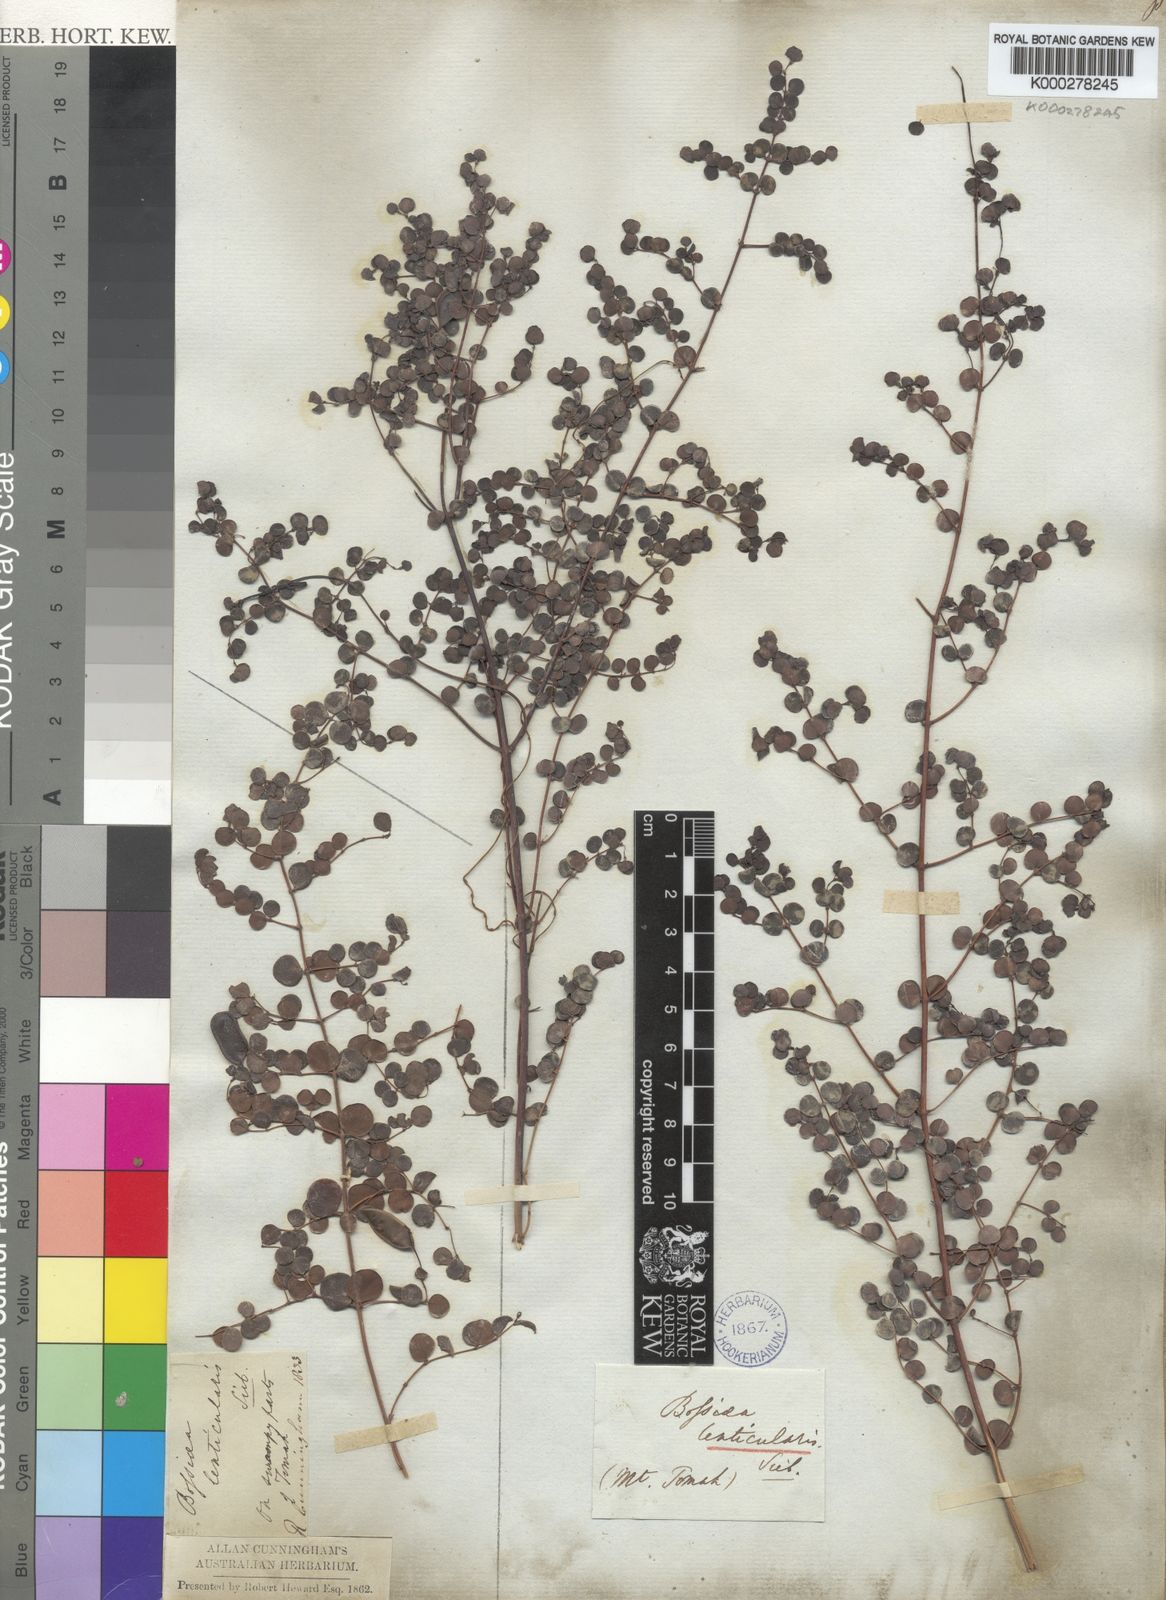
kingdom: Plantae
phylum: Tracheophyta
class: Magnoliopsida
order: Fabales
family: Fabaceae
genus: Bossiaea
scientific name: Bossiaea lenticularis
